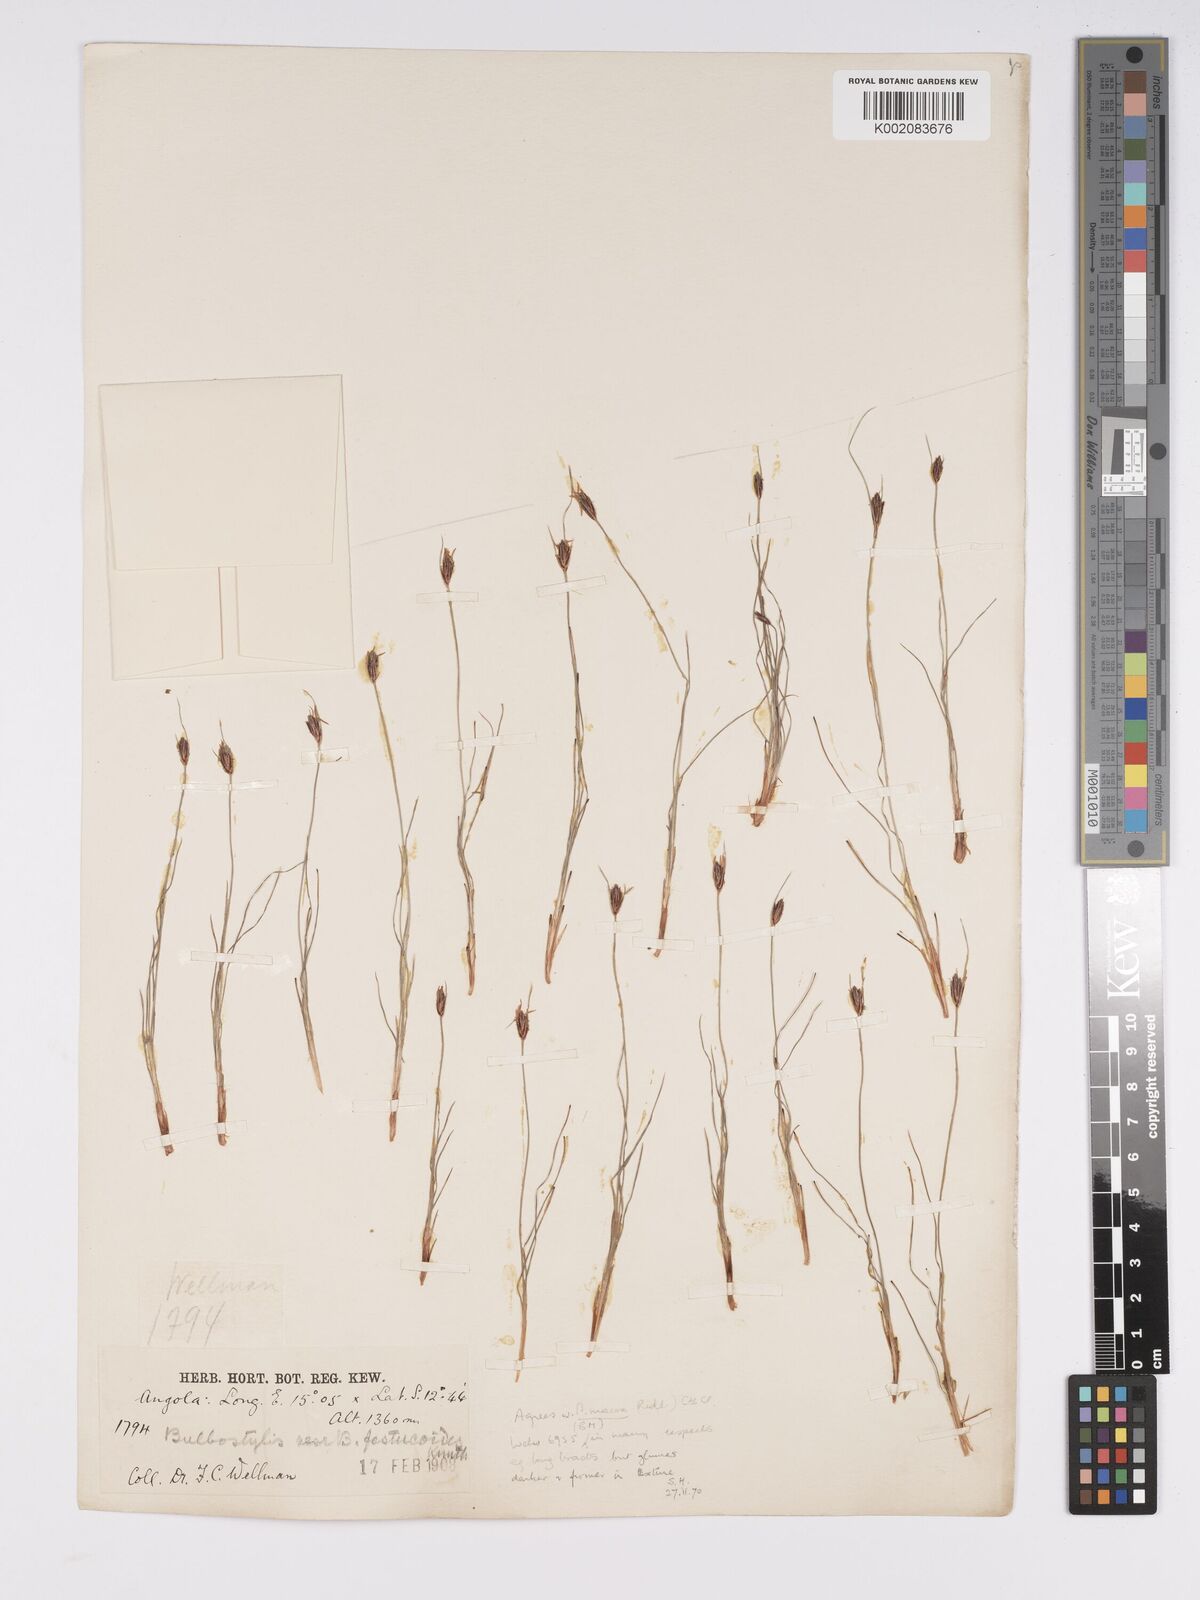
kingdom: Plantae
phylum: Tracheophyta
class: Liliopsida
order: Poales
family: Cyperaceae
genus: Bulbostylis
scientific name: Bulbostylis macra
